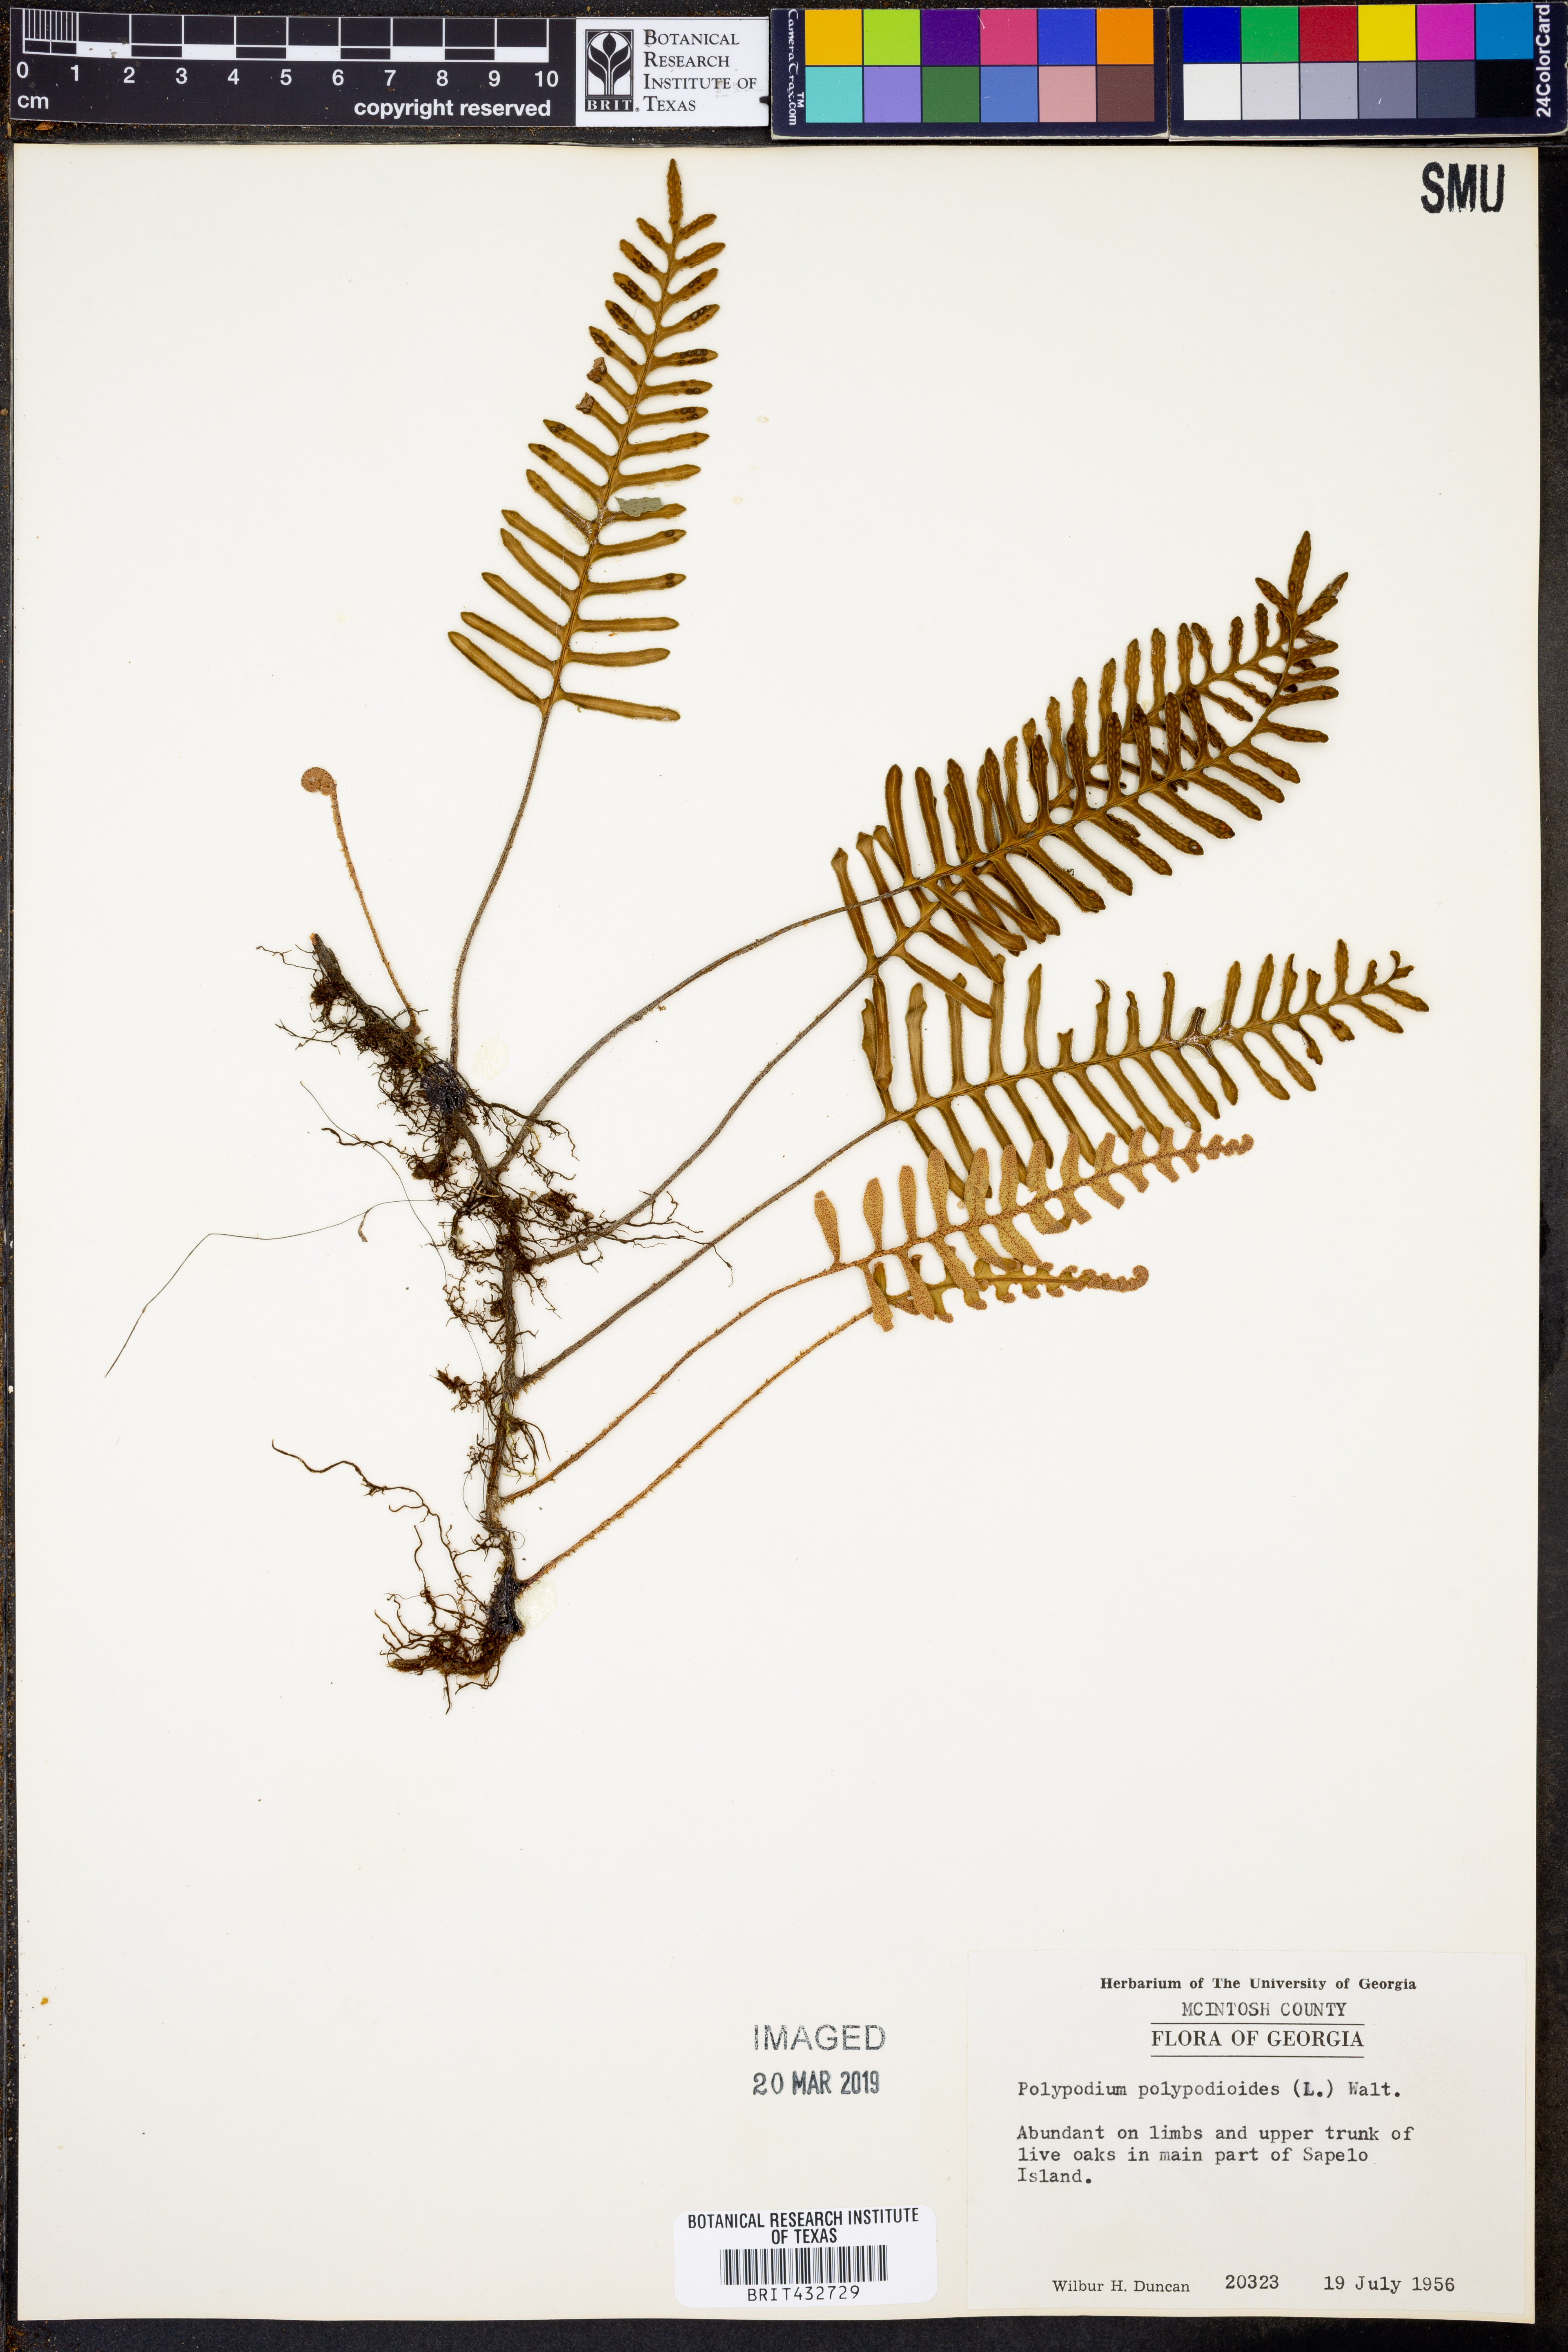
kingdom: Plantae
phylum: Tracheophyta
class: Polypodiopsida
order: Polypodiales
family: Polypodiaceae
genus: Pleopeltis
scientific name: Pleopeltis polypodioides
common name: Resurrection fern
